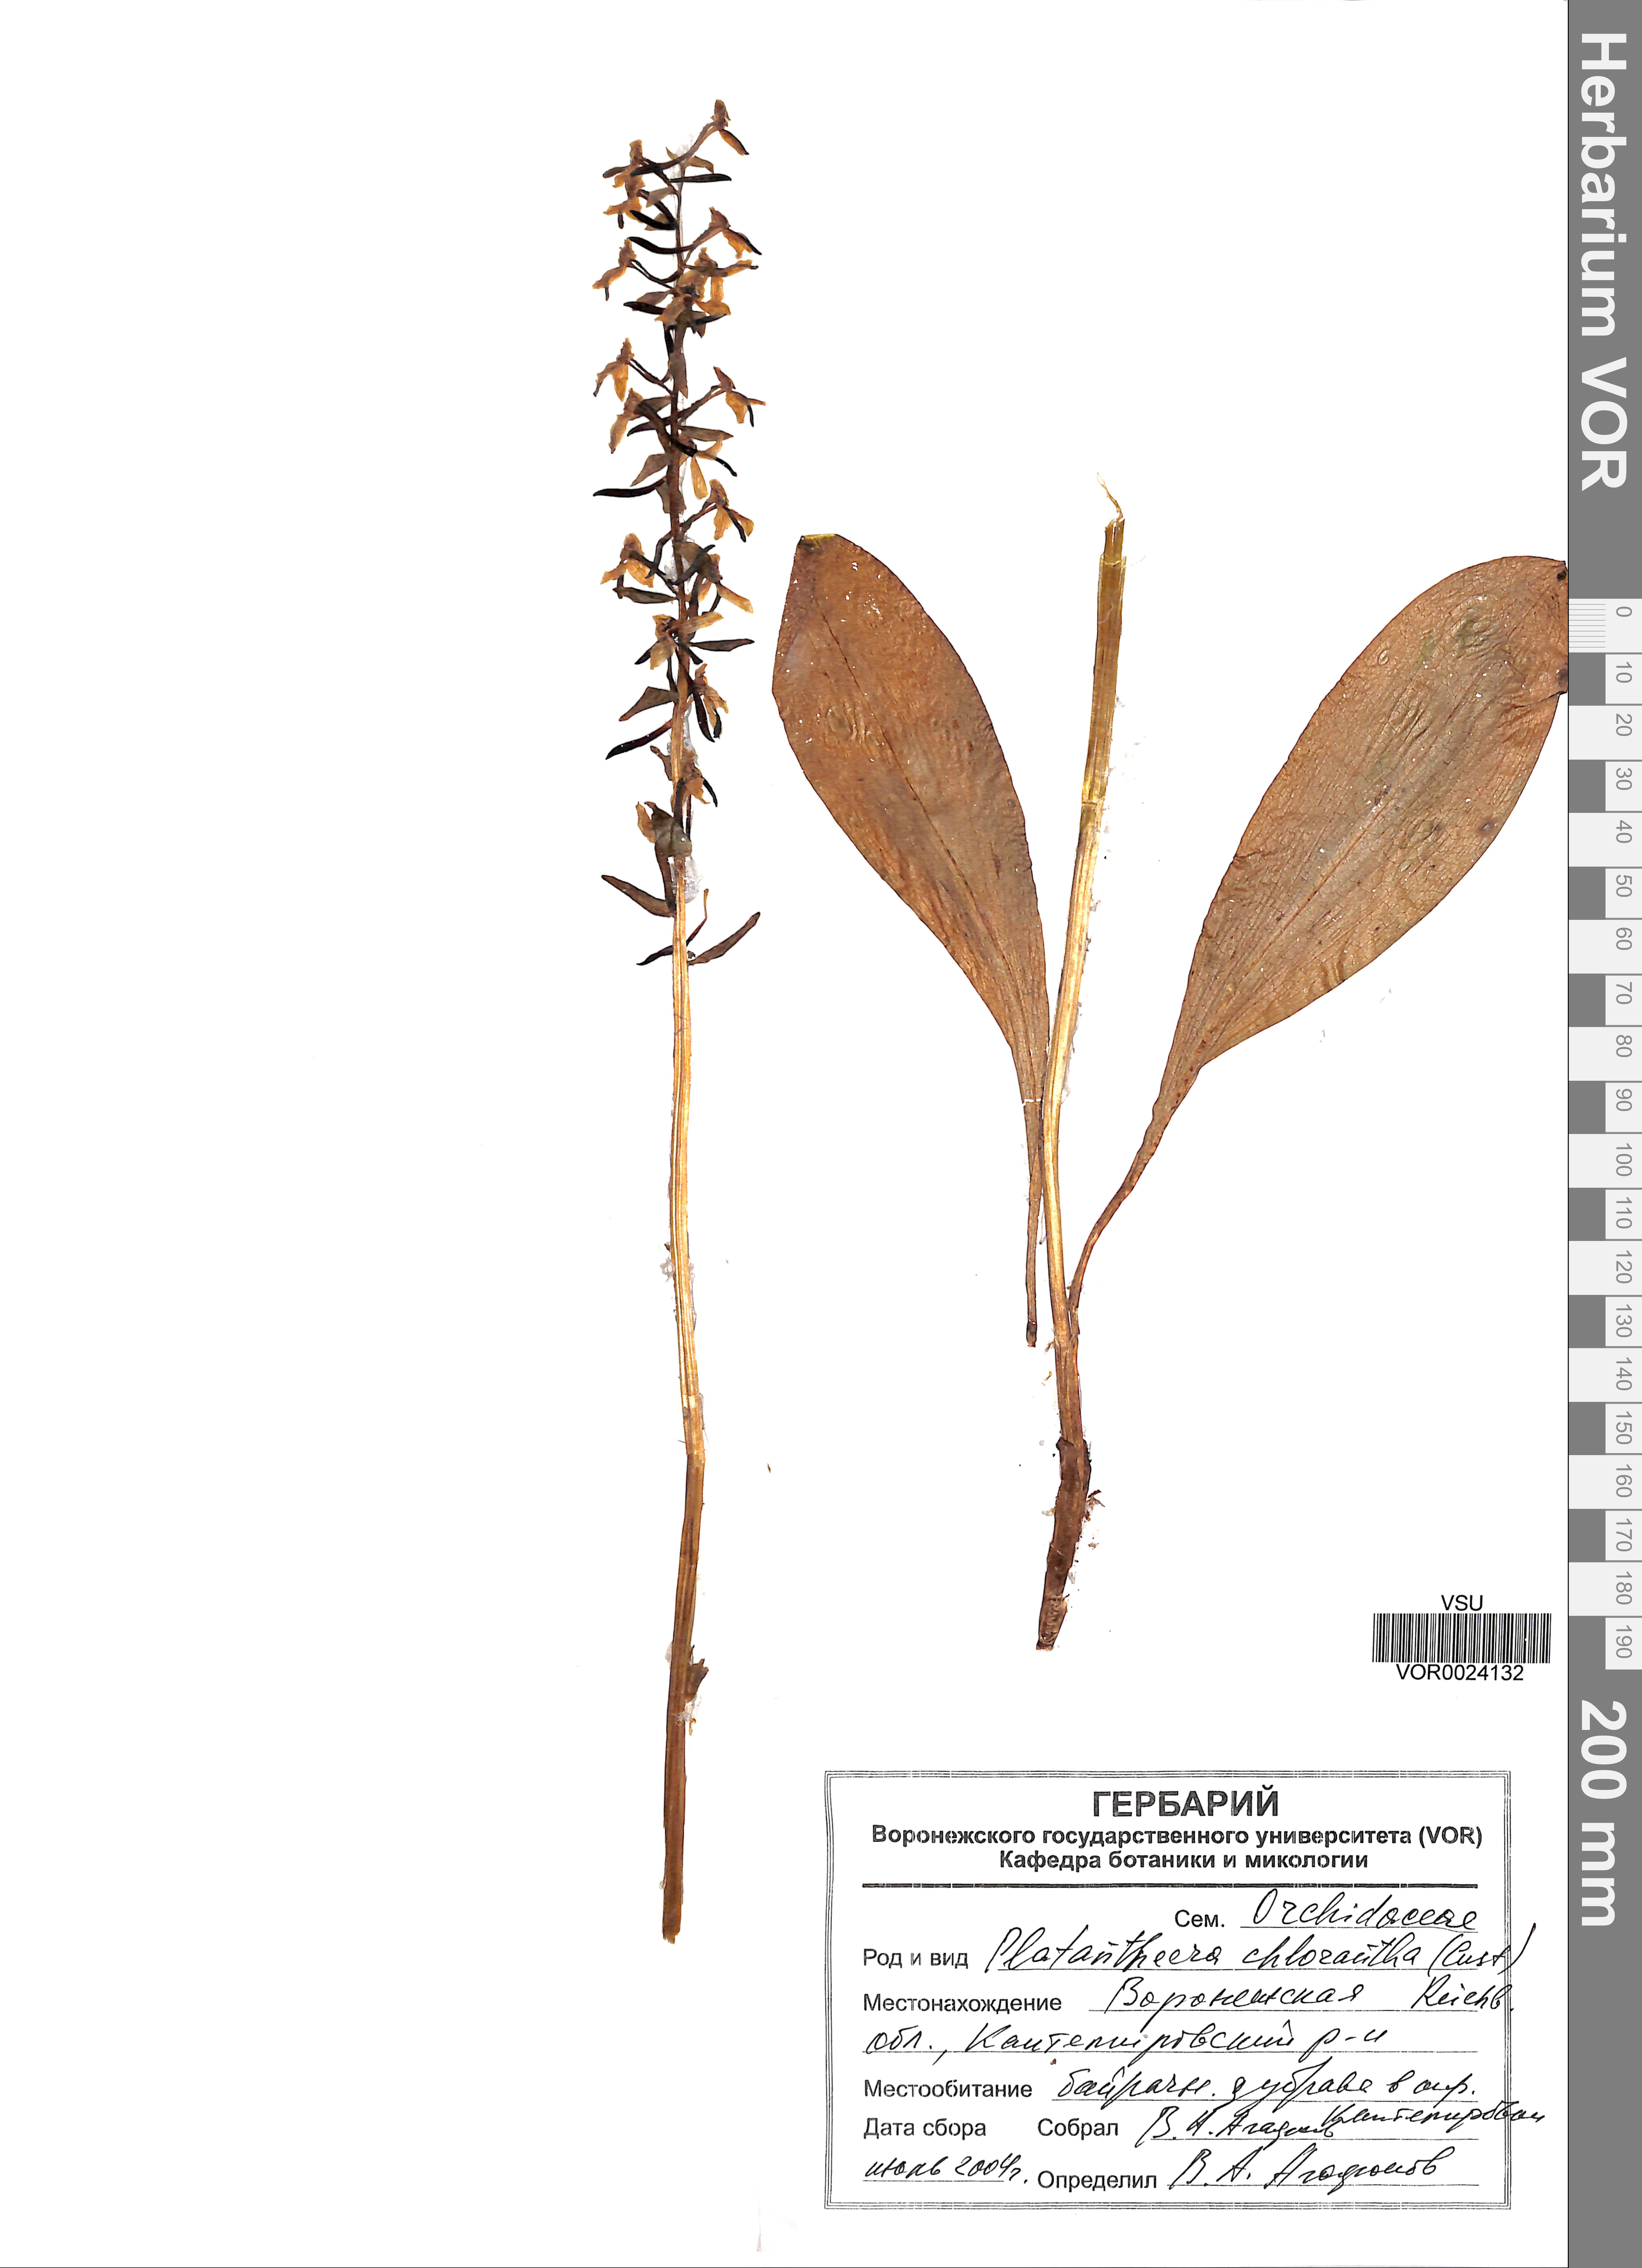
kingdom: Plantae
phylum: Tracheophyta
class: Liliopsida
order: Asparagales
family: Orchidaceae
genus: Platanthera
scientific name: Platanthera chlorantha
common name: Greater butterfly-orchid
